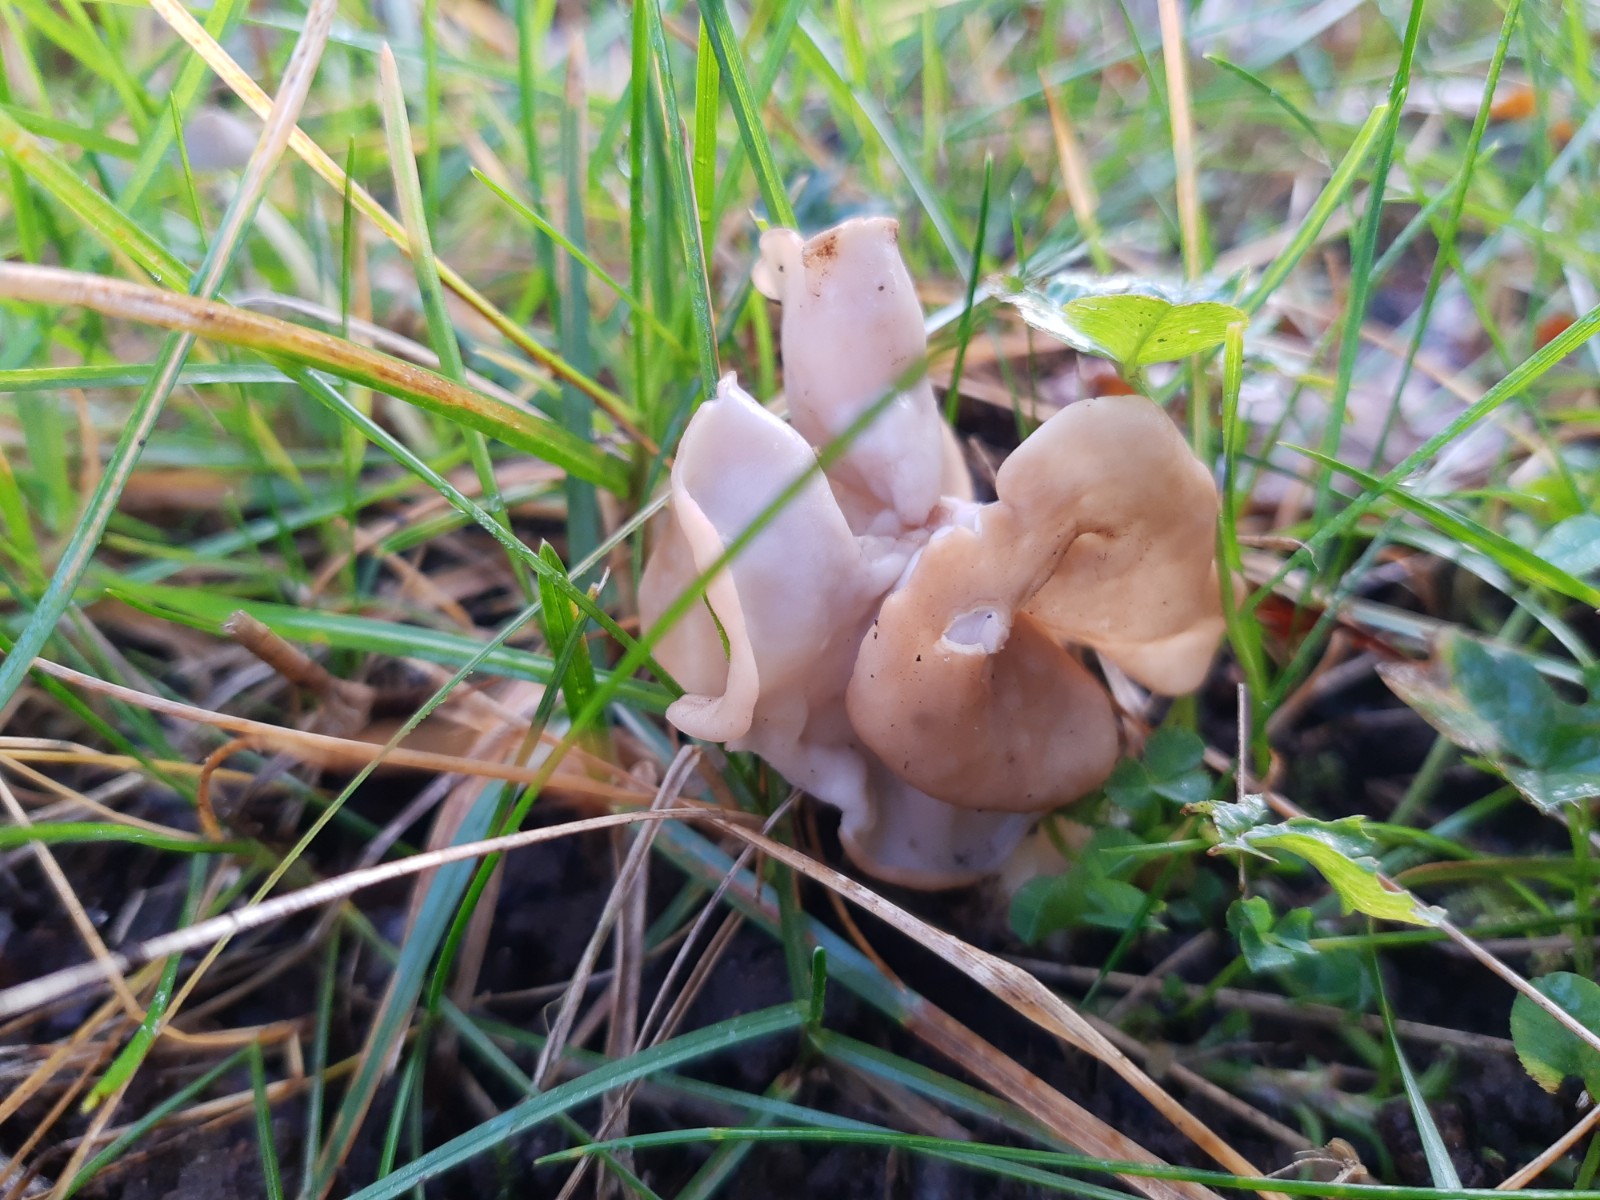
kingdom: Fungi
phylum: Ascomycota
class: Pezizomycetes
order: Pezizales
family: Helvellaceae
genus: Helvella
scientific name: Helvella crispa
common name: kruset foldhat
